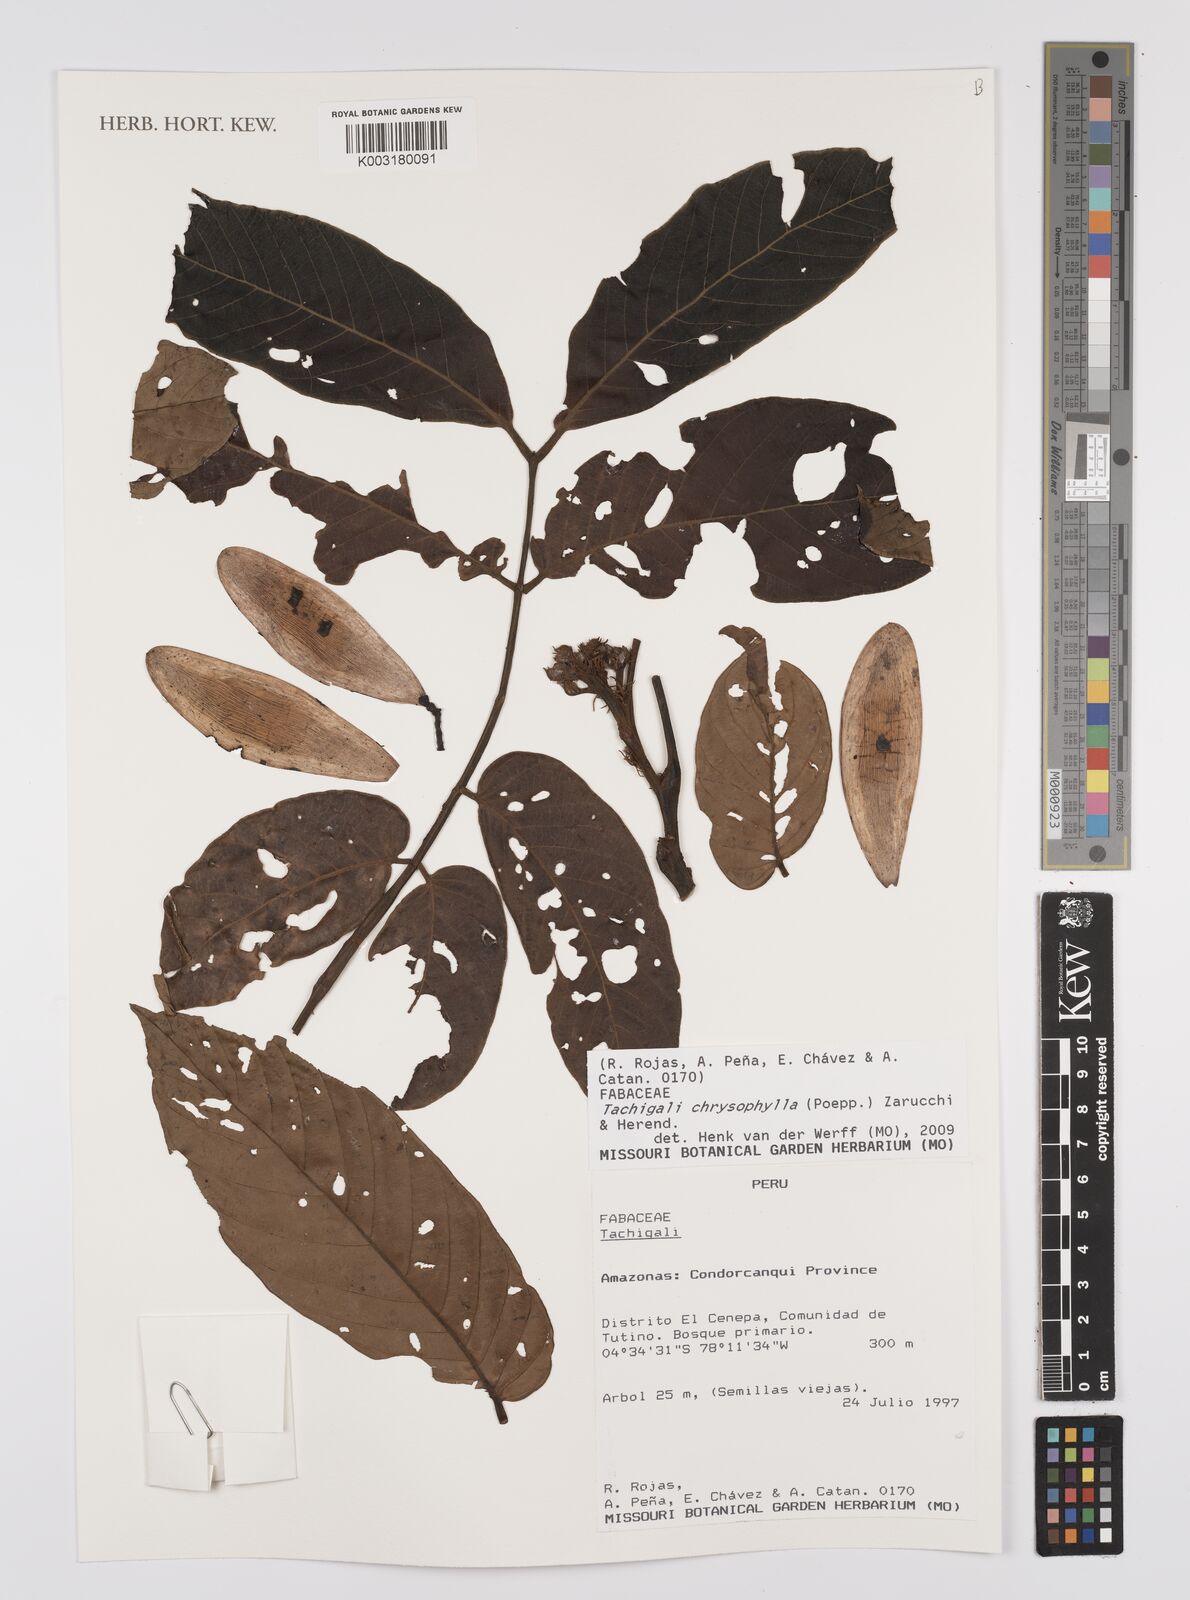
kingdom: Plantae
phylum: Tracheophyta
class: Magnoliopsida
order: Fabales
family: Fabaceae
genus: Tachigali
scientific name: Tachigali chrysophylla
